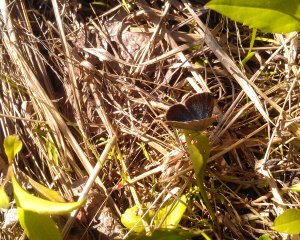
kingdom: Animalia
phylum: Arthropoda
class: Insecta
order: Lepidoptera
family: Lycaenidae
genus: Glaucopsyche
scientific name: Glaucopsyche lygdamus
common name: Silvery Blue
